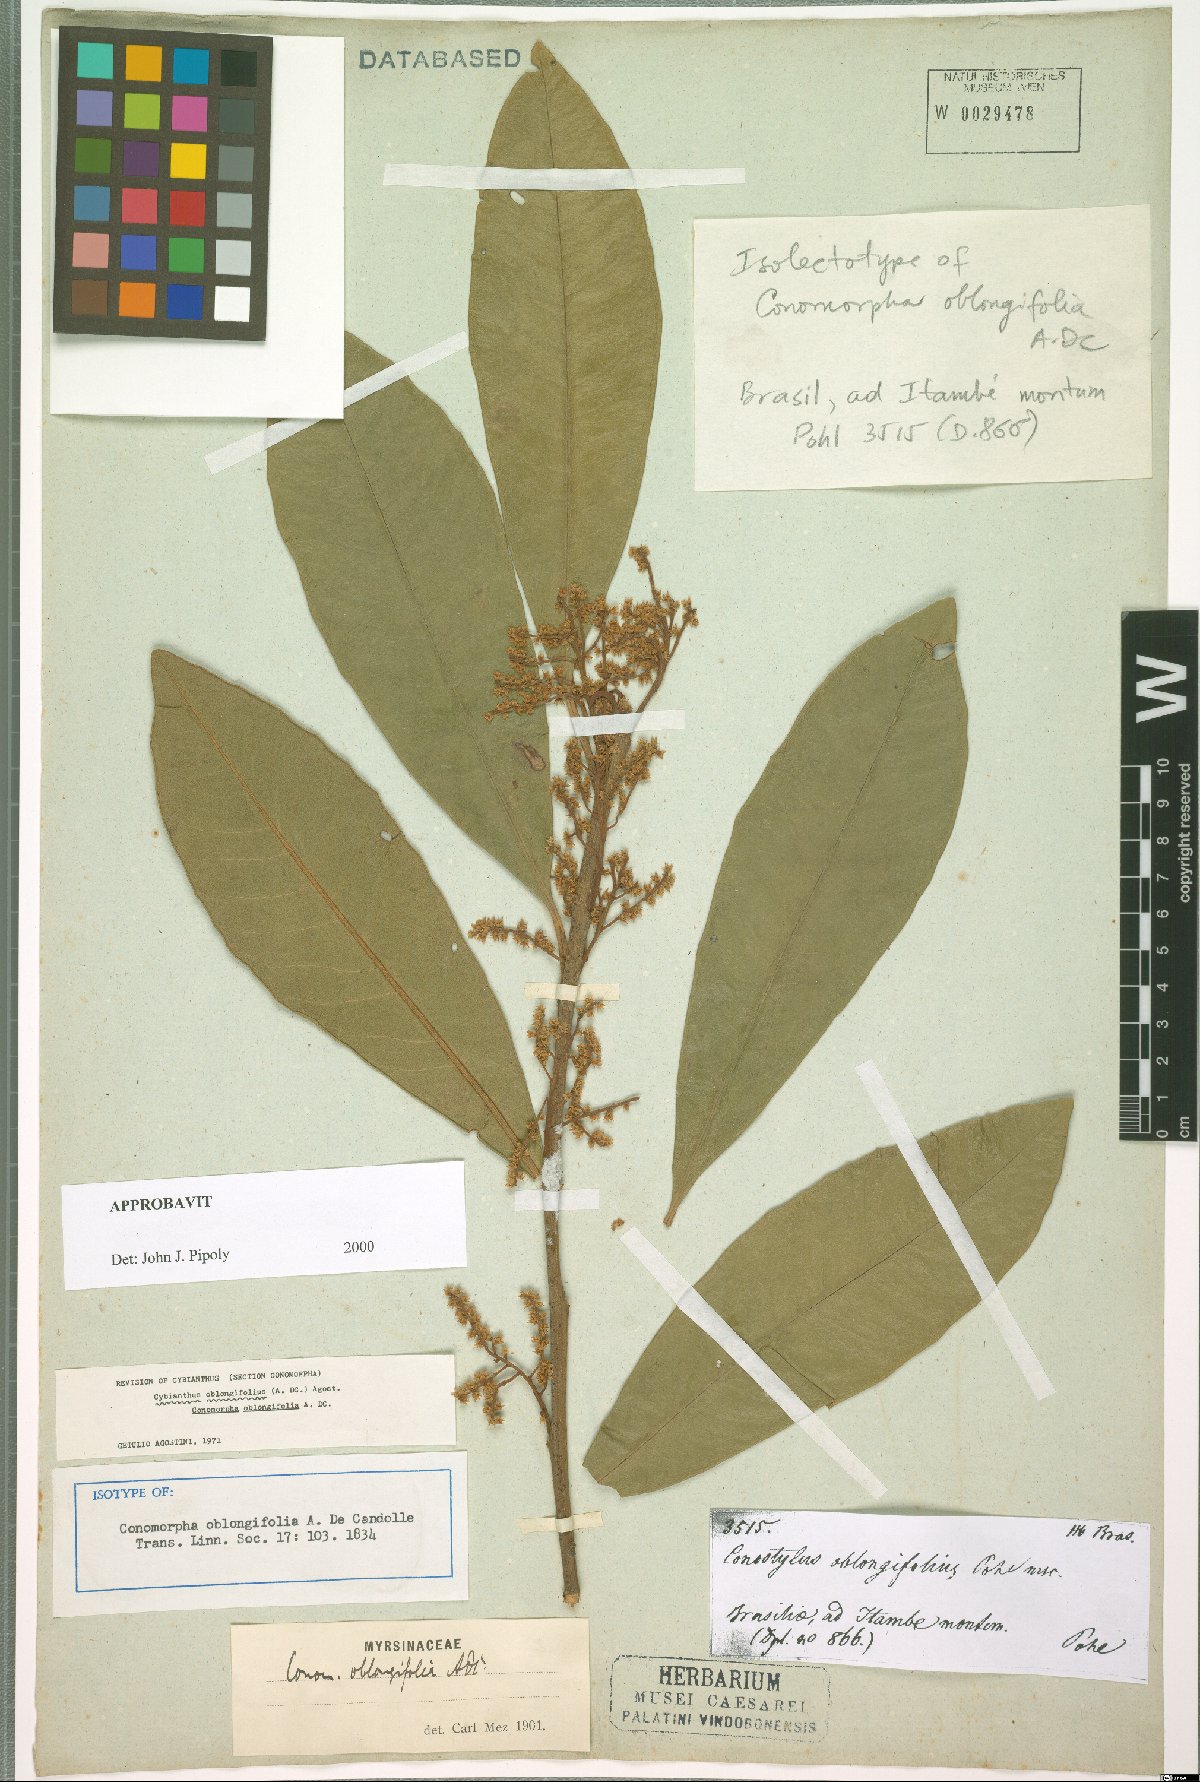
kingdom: Plantae
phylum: Tracheophyta
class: Magnoliopsida
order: Ericales
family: Primulaceae
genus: Cybianthus
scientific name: Cybianthus oblongifolius
